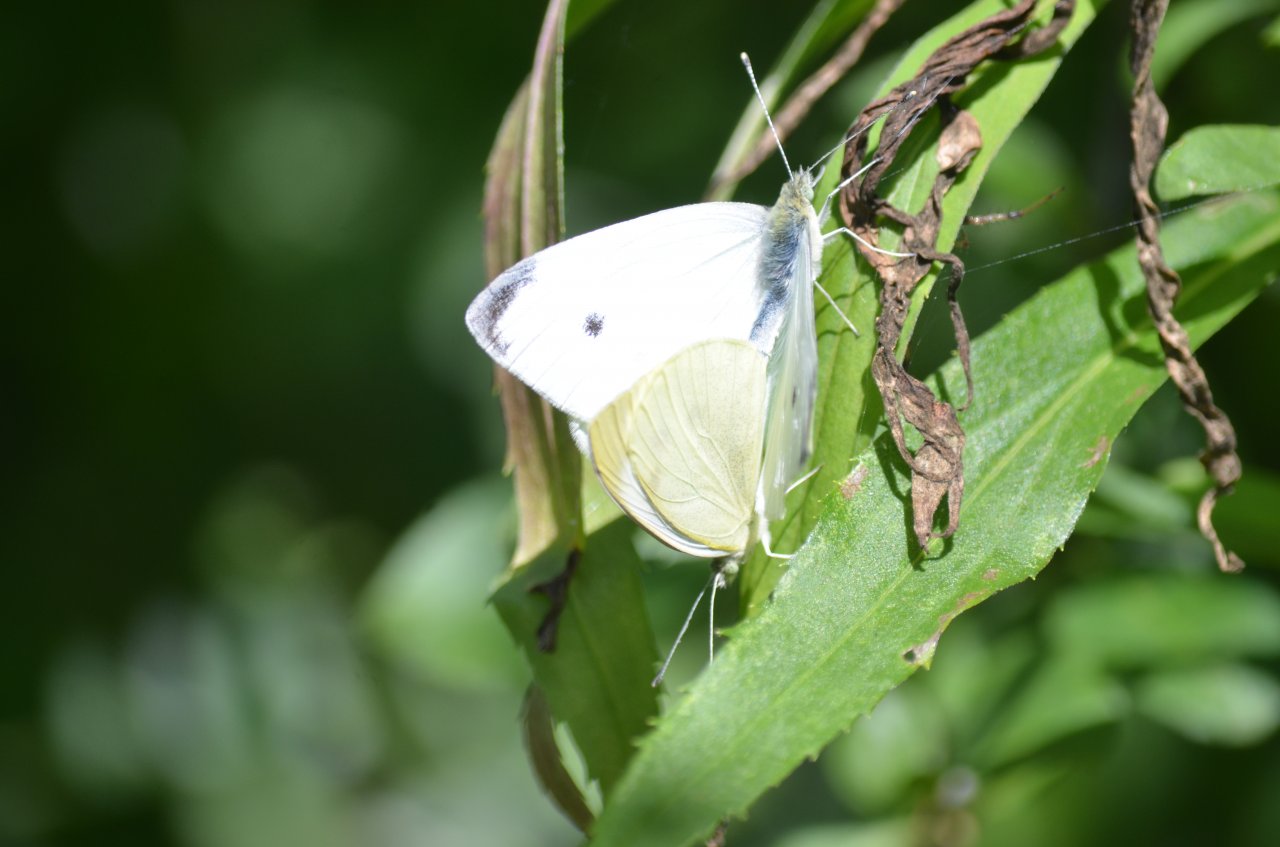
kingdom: Animalia
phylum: Arthropoda
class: Insecta
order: Lepidoptera
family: Pieridae
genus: Pieris
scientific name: Pieris rapae
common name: Cabbage White
